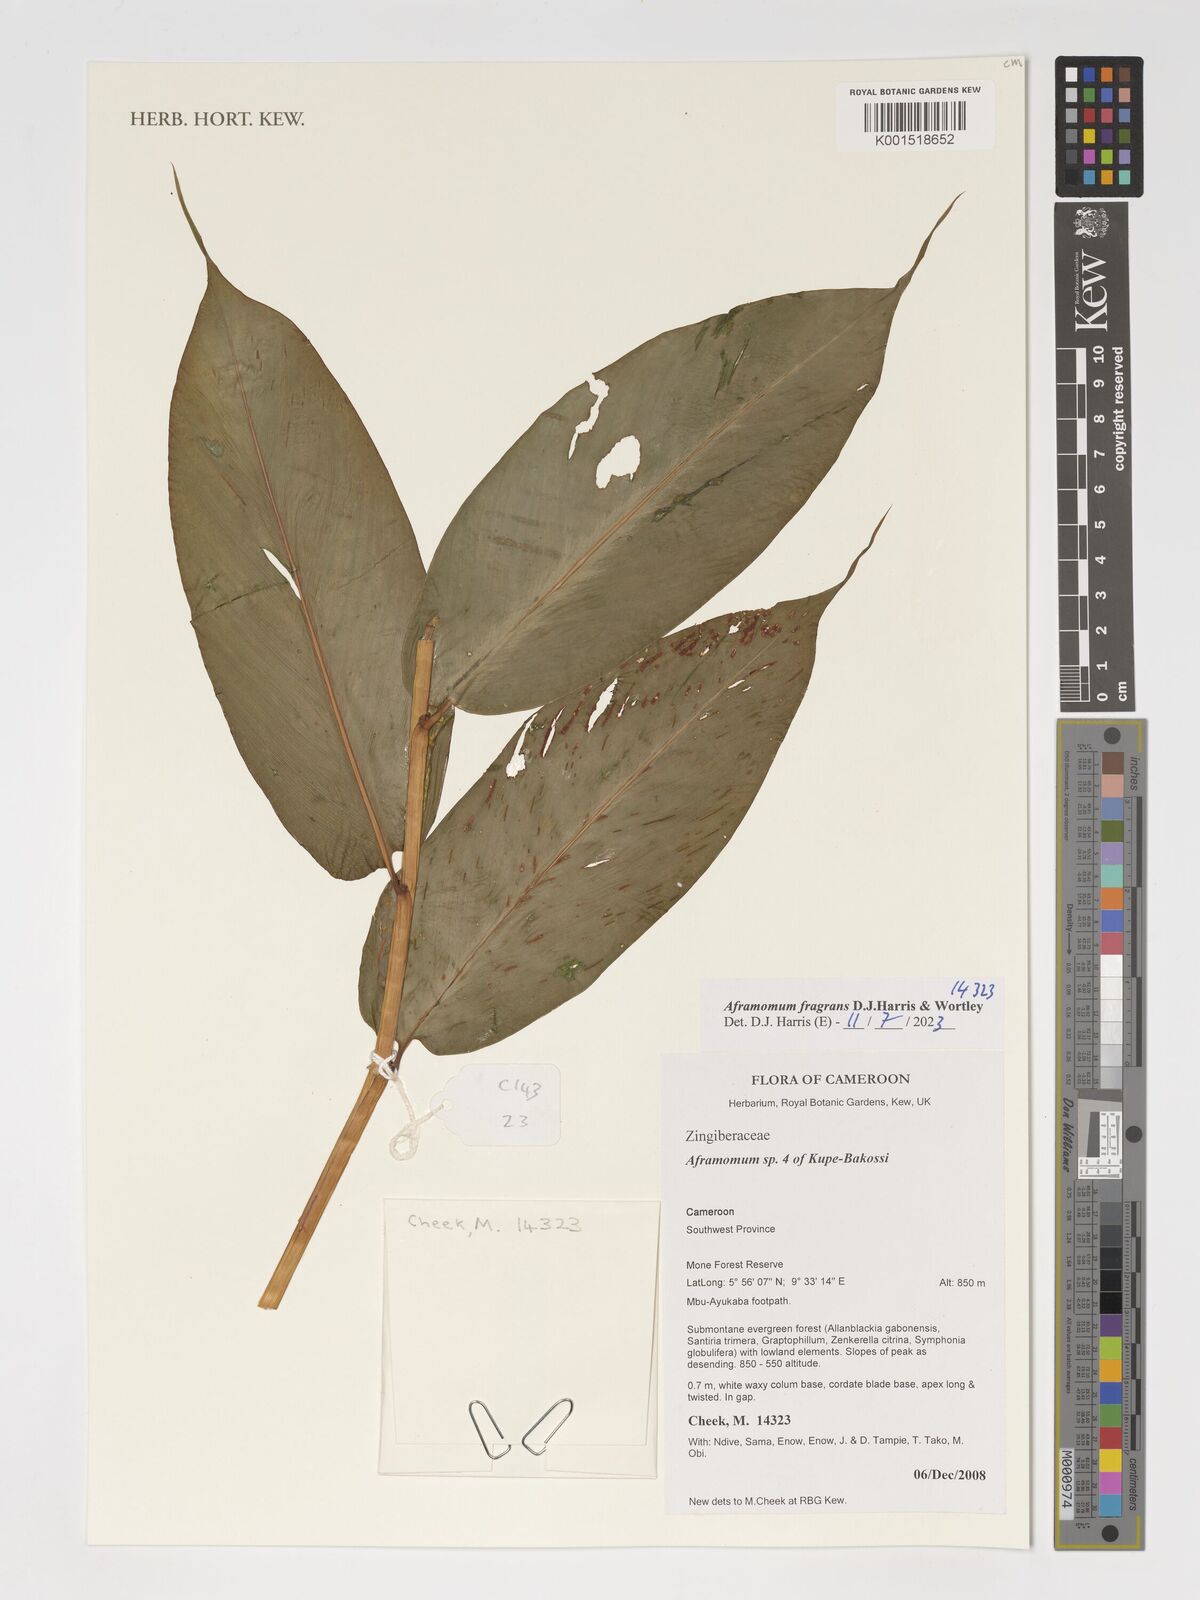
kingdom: Plantae
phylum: Tracheophyta
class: Liliopsida
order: Zingiberales
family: Zingiberaceae
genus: Aframomum
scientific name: Aframomum fragrans
